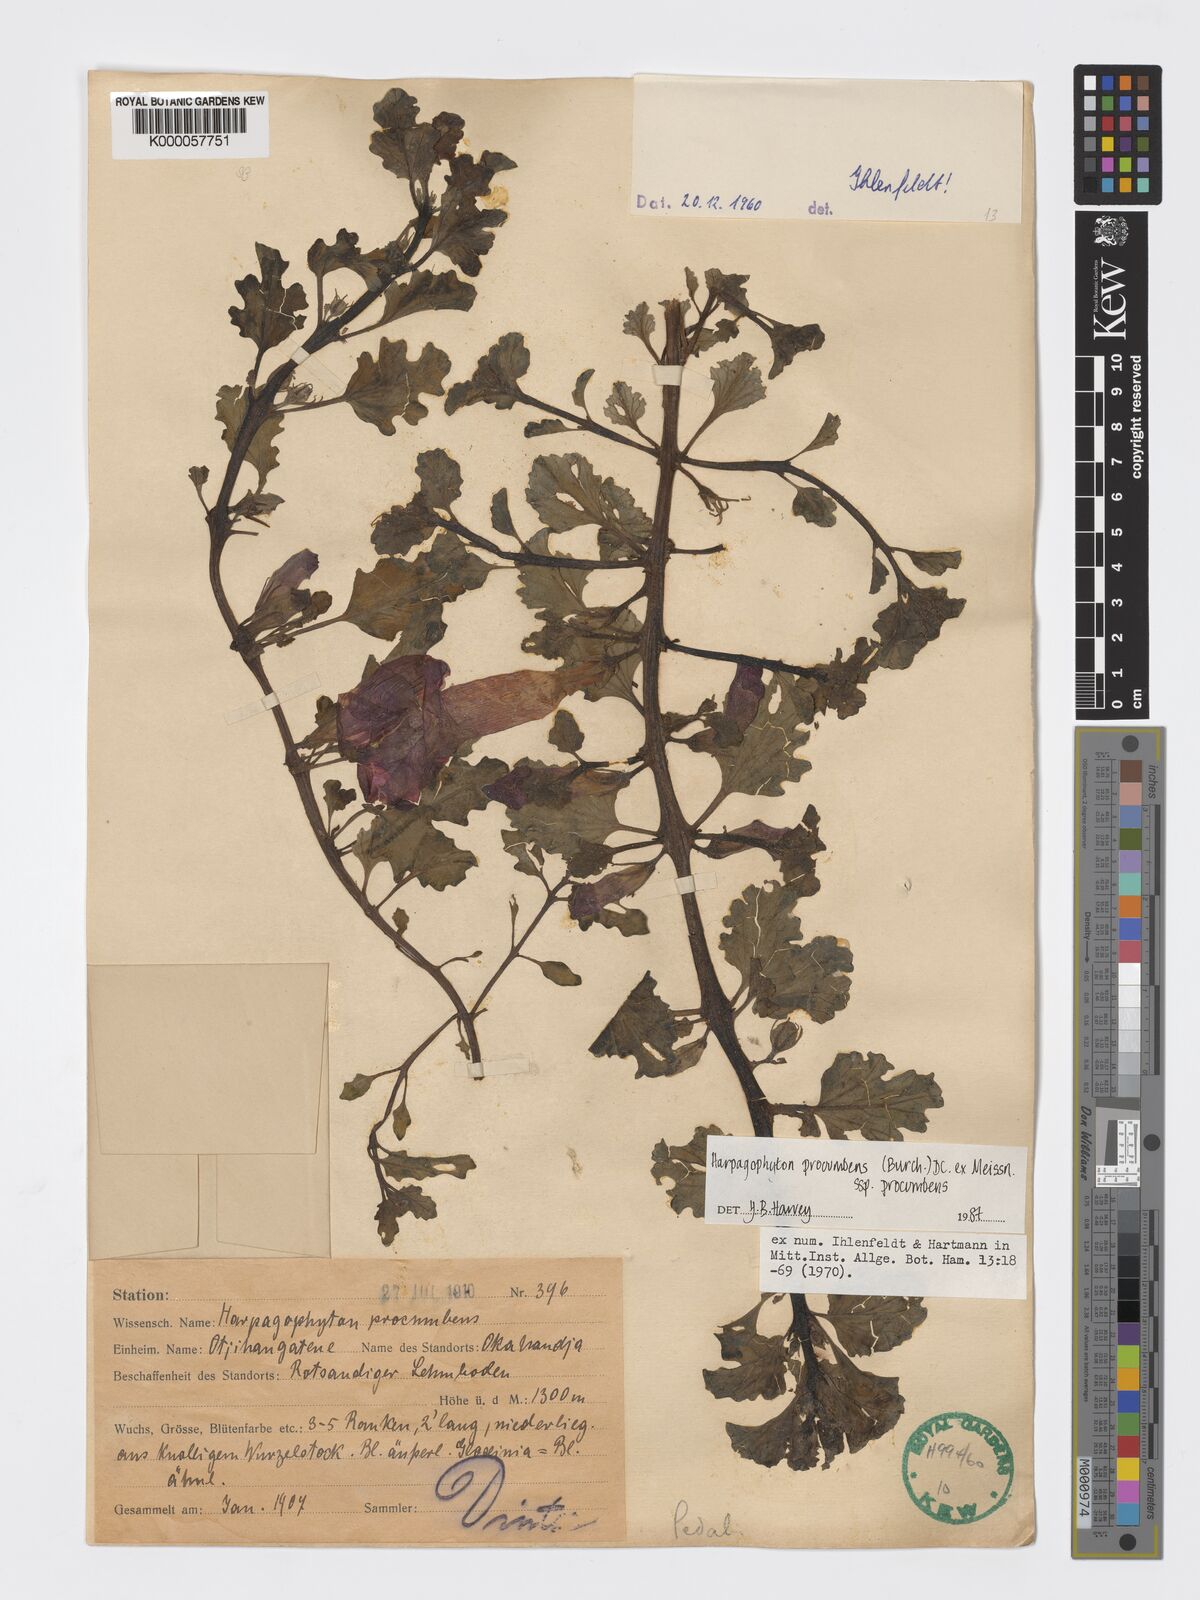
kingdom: Plantae
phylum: Tracheophyta
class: Magnoliopsida
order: Lamiales
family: Pedaliaceae
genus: Harpagophytum
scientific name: Harpagophytum procumbens
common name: Grappleplant
